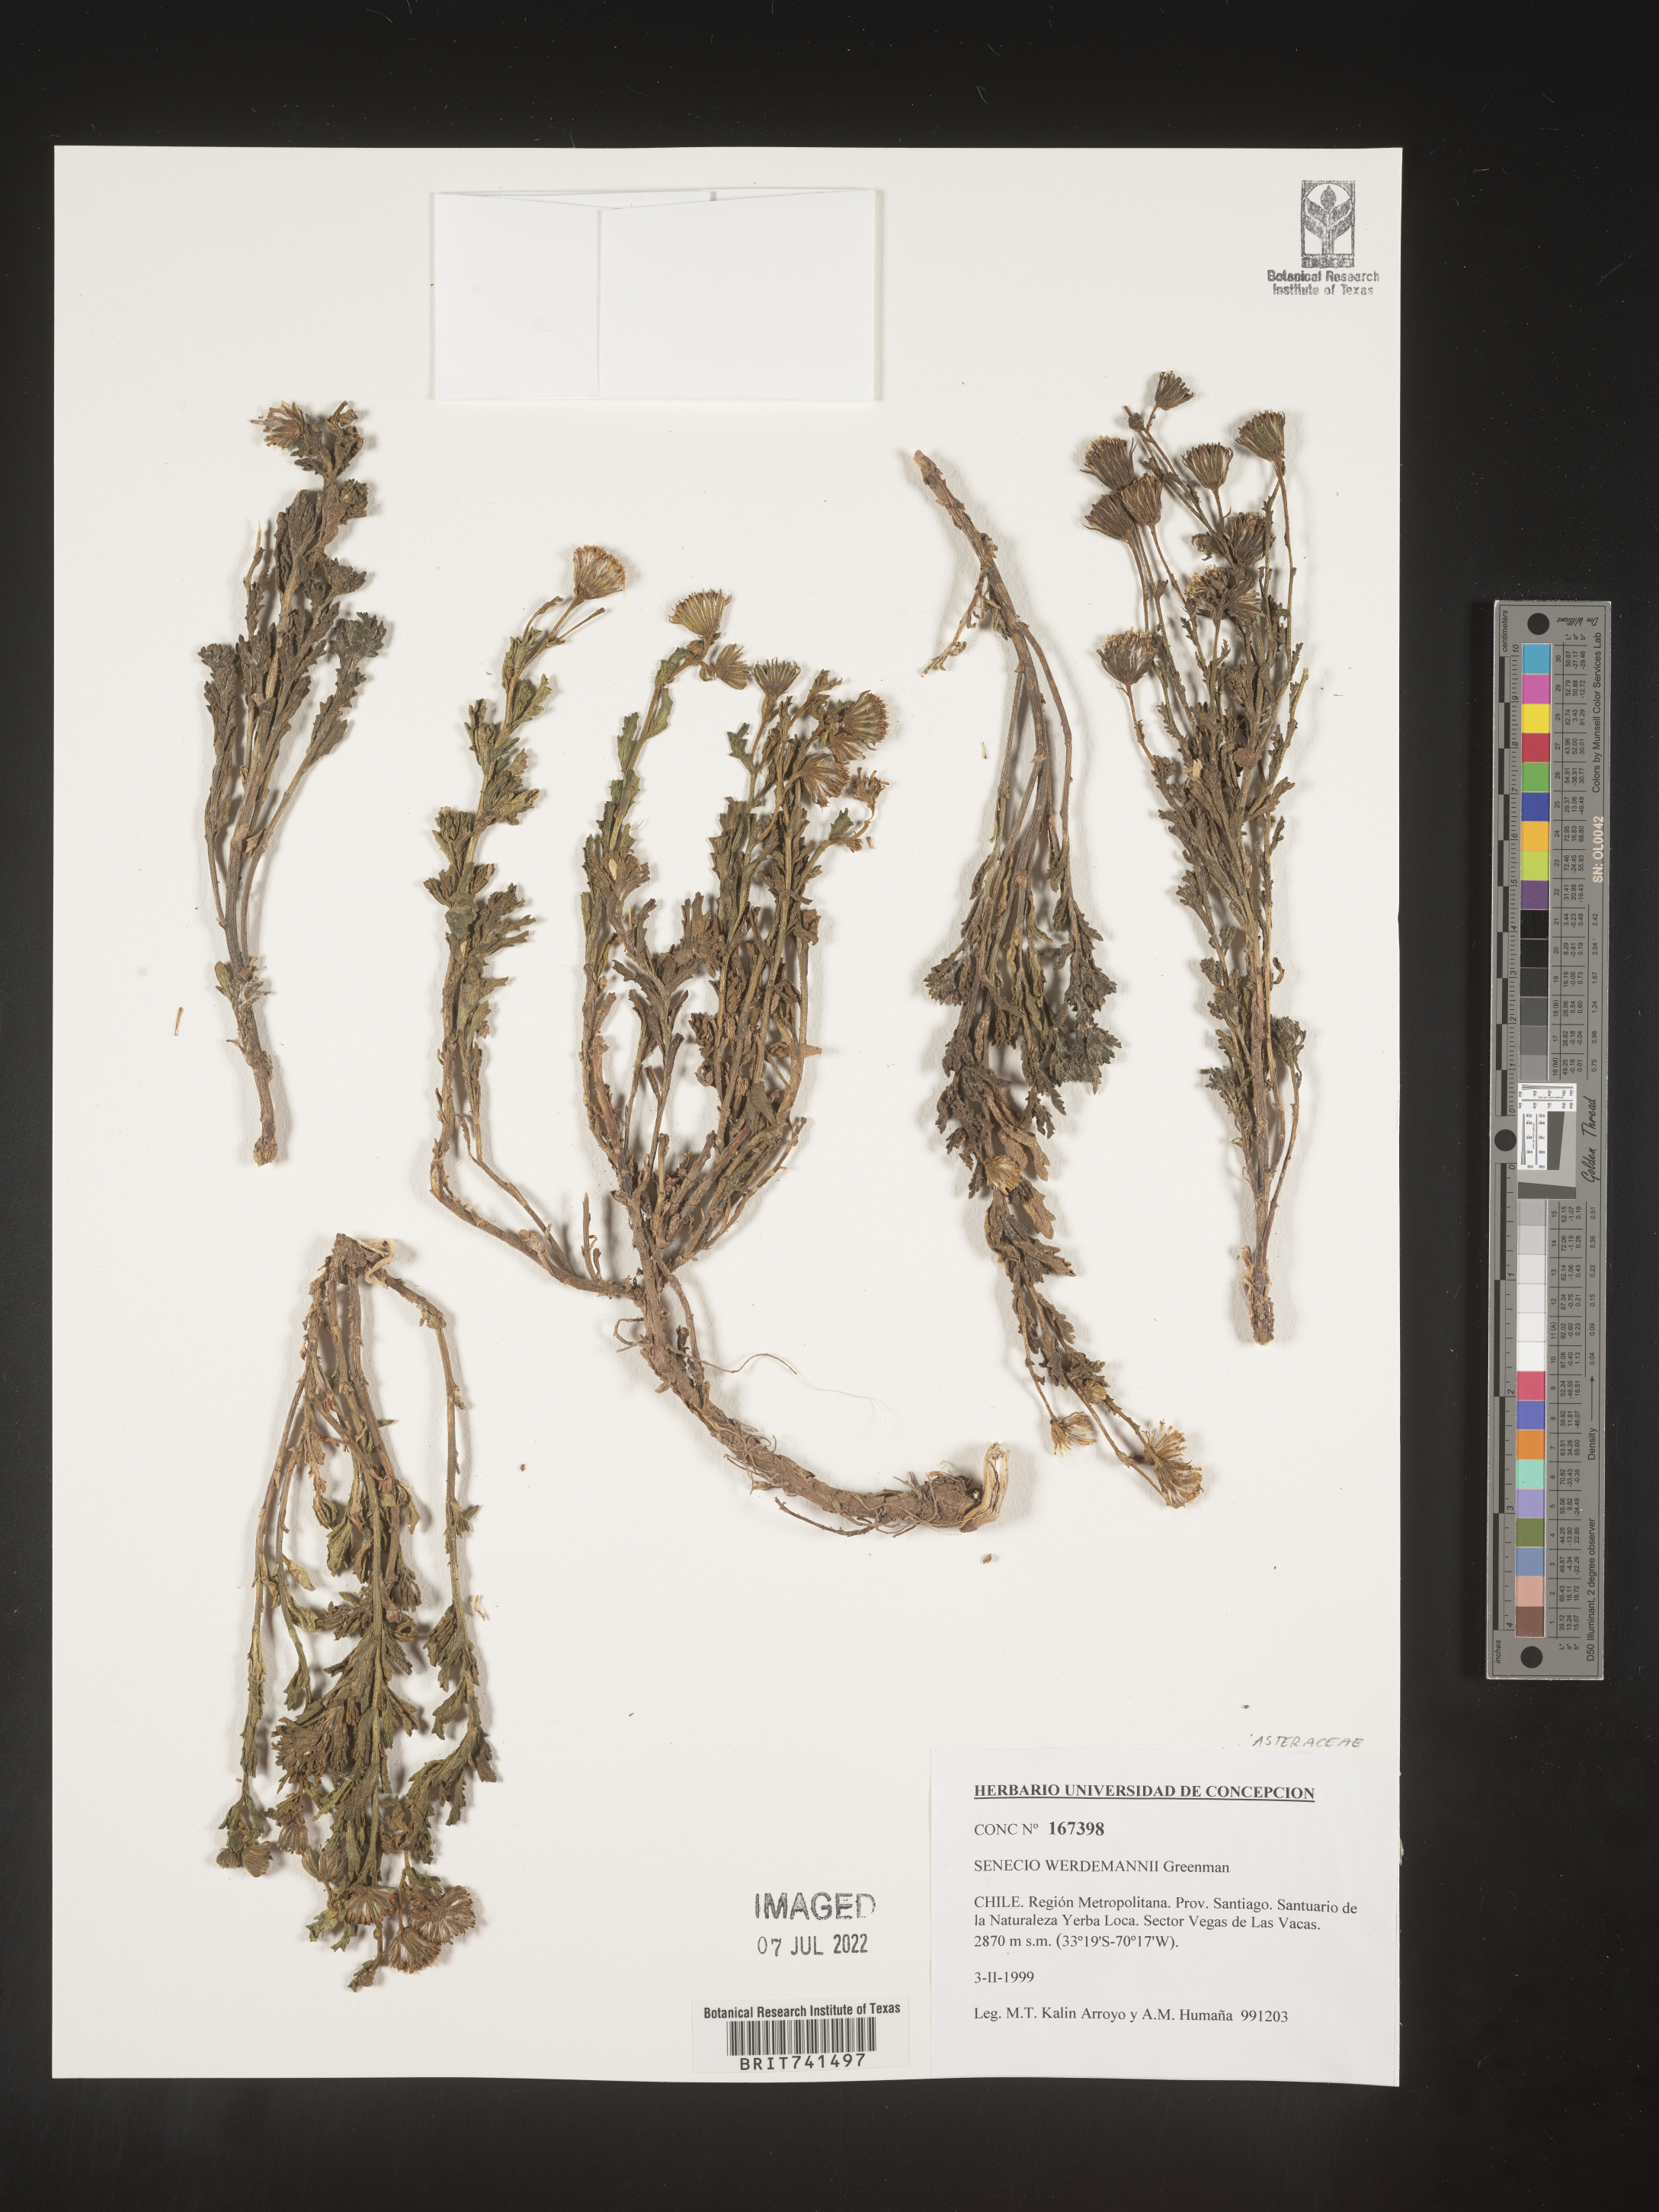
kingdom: Plantae
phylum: Tracheophyta
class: Magnoliopsida
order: Asterales
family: Asteraceae
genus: Senecio
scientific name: Senecio
